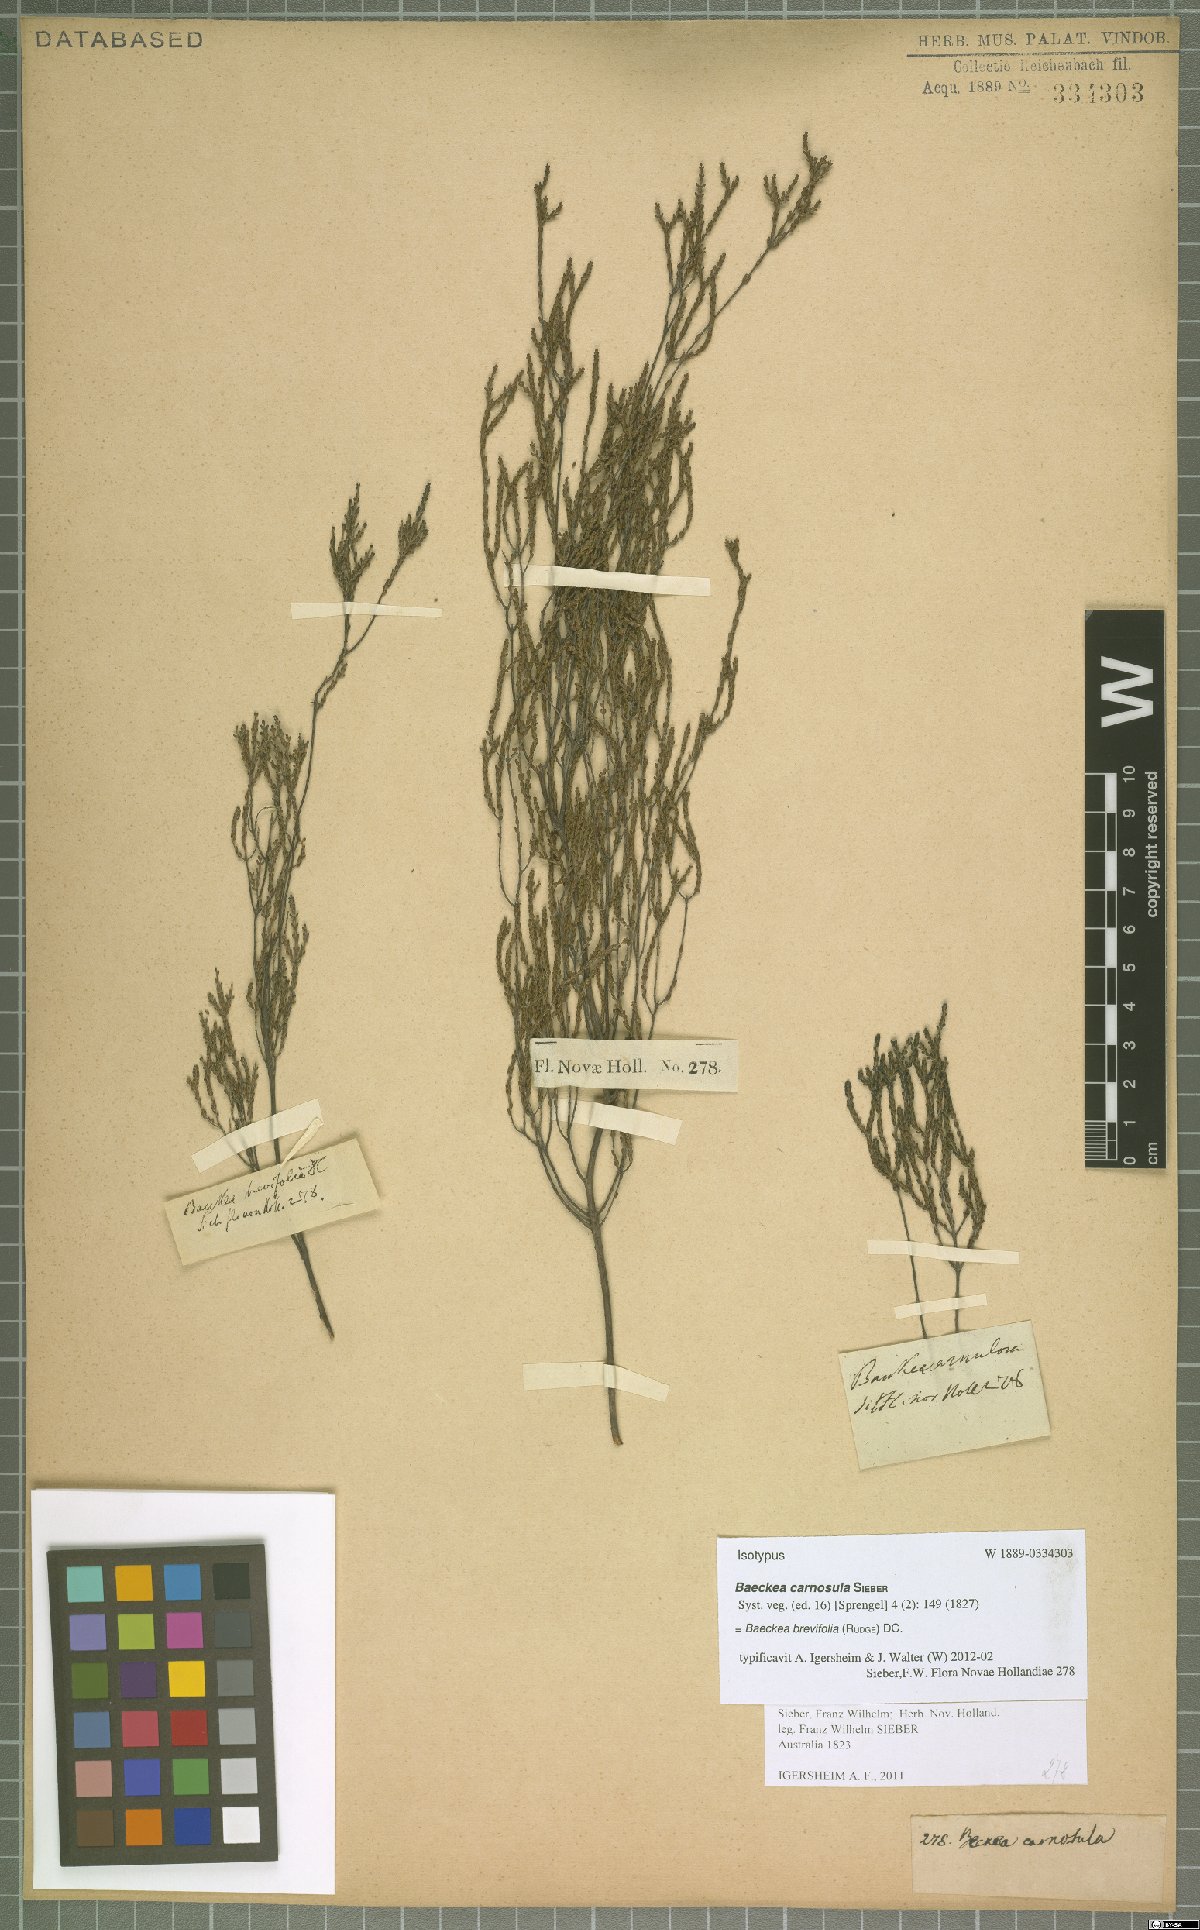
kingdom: Plantae
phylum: Tracheophyta
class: Magnoliopsida
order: Myrtales
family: Myrtaceae
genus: Baeckea
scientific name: Baeckea brevifolia
